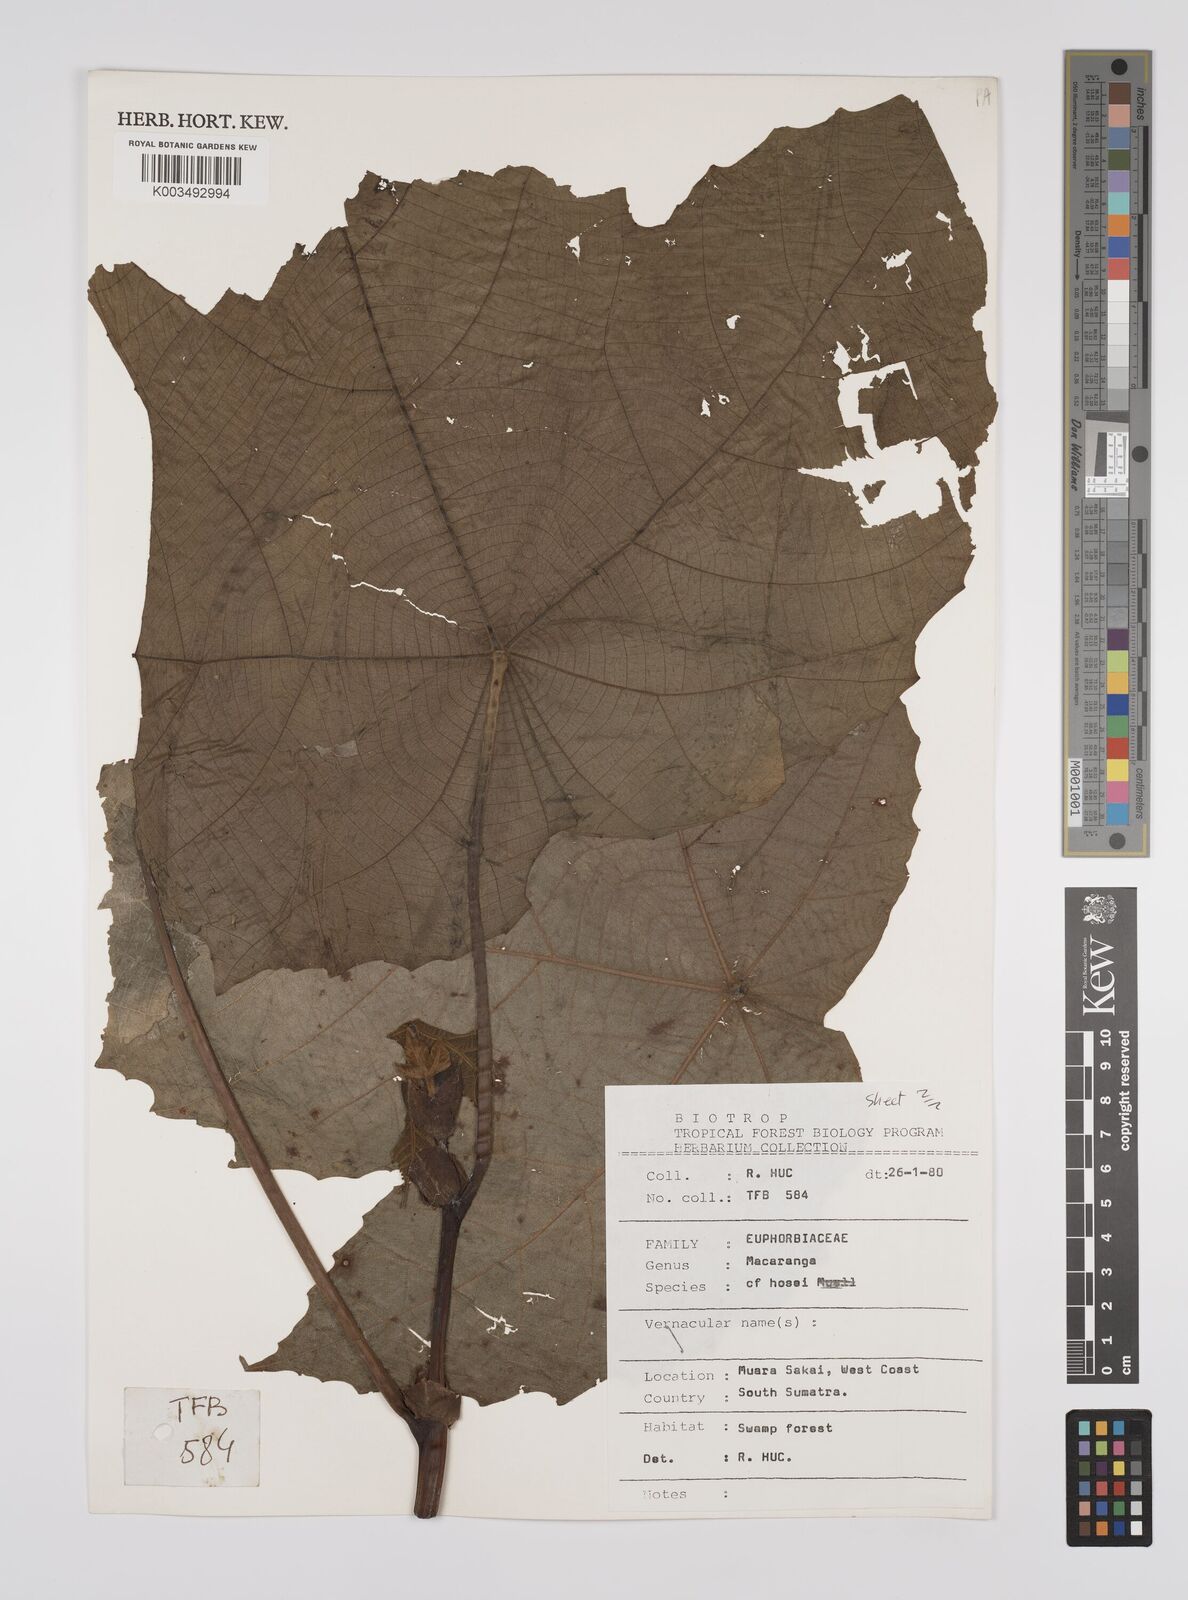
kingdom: Plantae
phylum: Tracheophyta
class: Magnoliopsida
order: Malpighiales
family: Euphorbiaceae
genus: Macaranga
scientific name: Macaranga hosei
